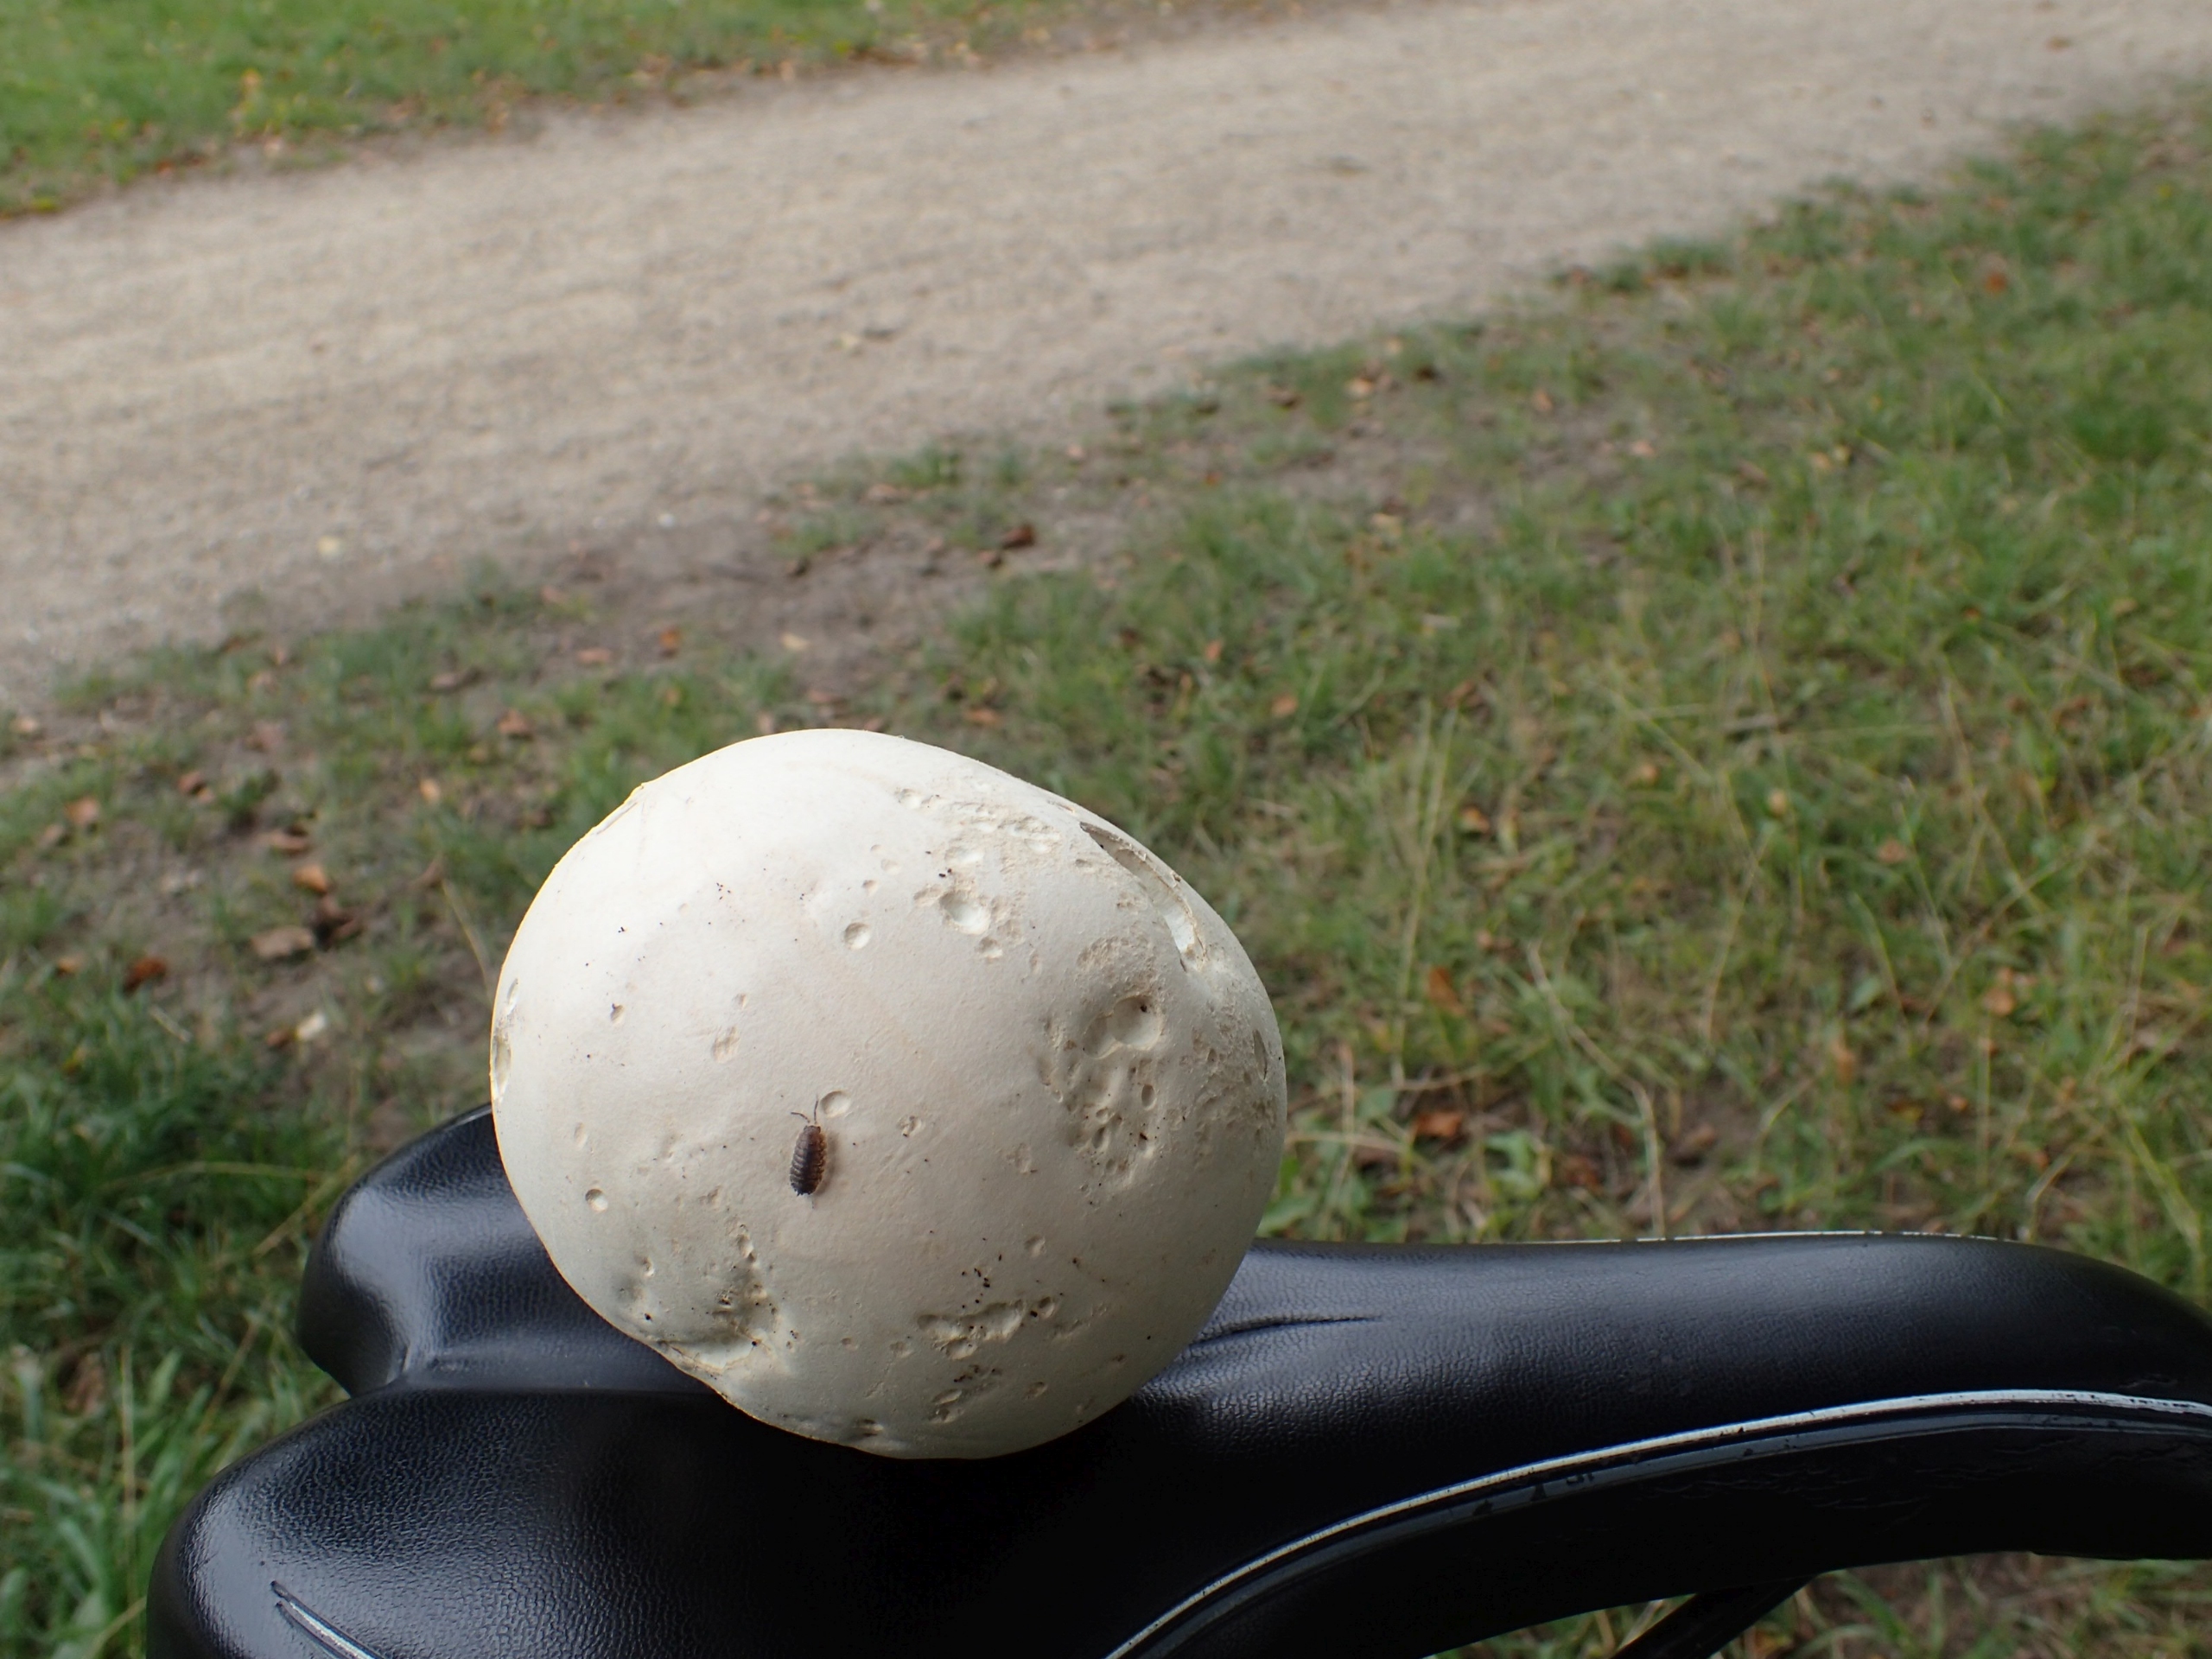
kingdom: Fungi
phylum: Basidiomycota
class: Agaricomycetes
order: Agaricales
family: Lycoperdaceae
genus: Calvatia
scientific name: Calvatia gigantea
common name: Kæmpestøvbold
